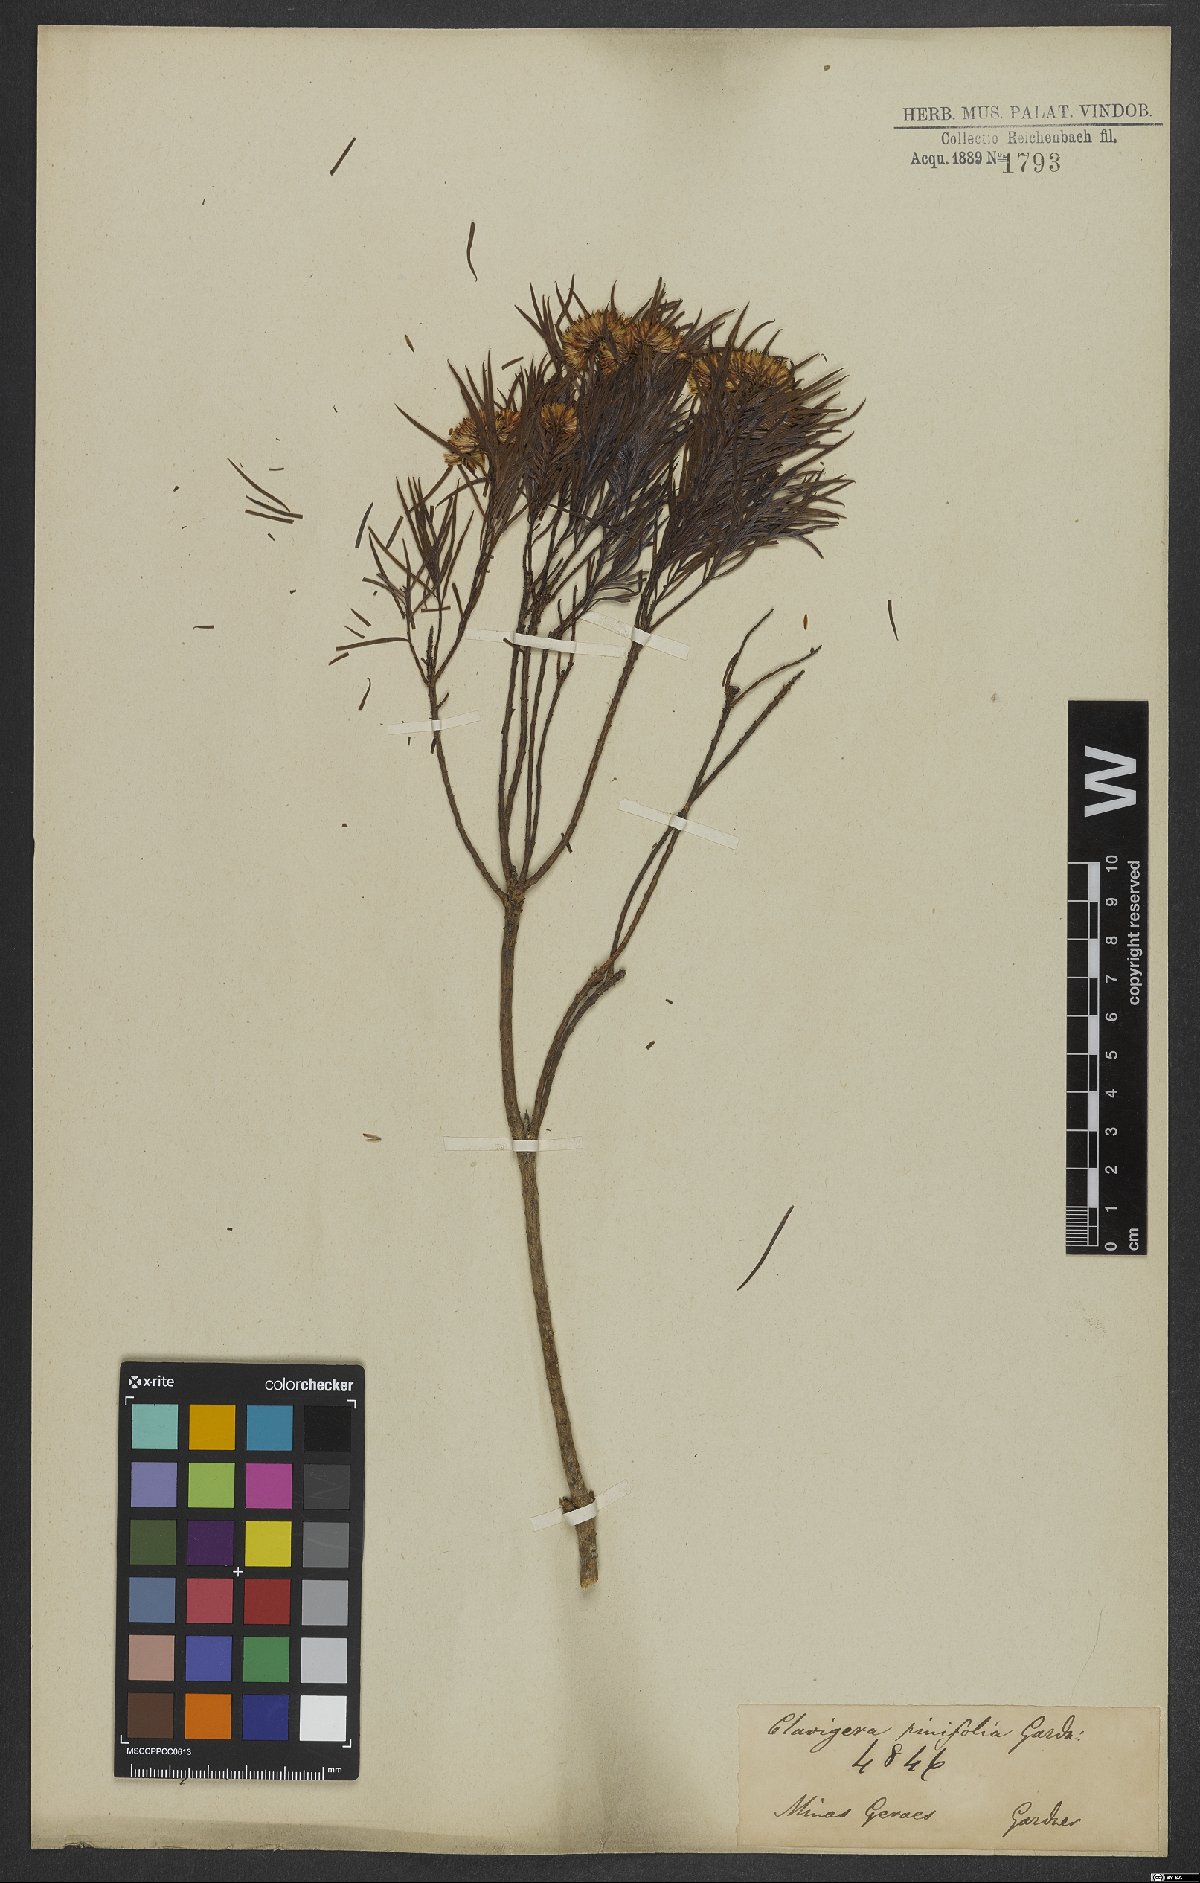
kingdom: Plantae
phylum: Tracheophyta
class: Magnoliopsida
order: Asterales
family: Asteraceae
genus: Pseudobrickellia
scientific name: Pseudobrickellia brasiliensis
